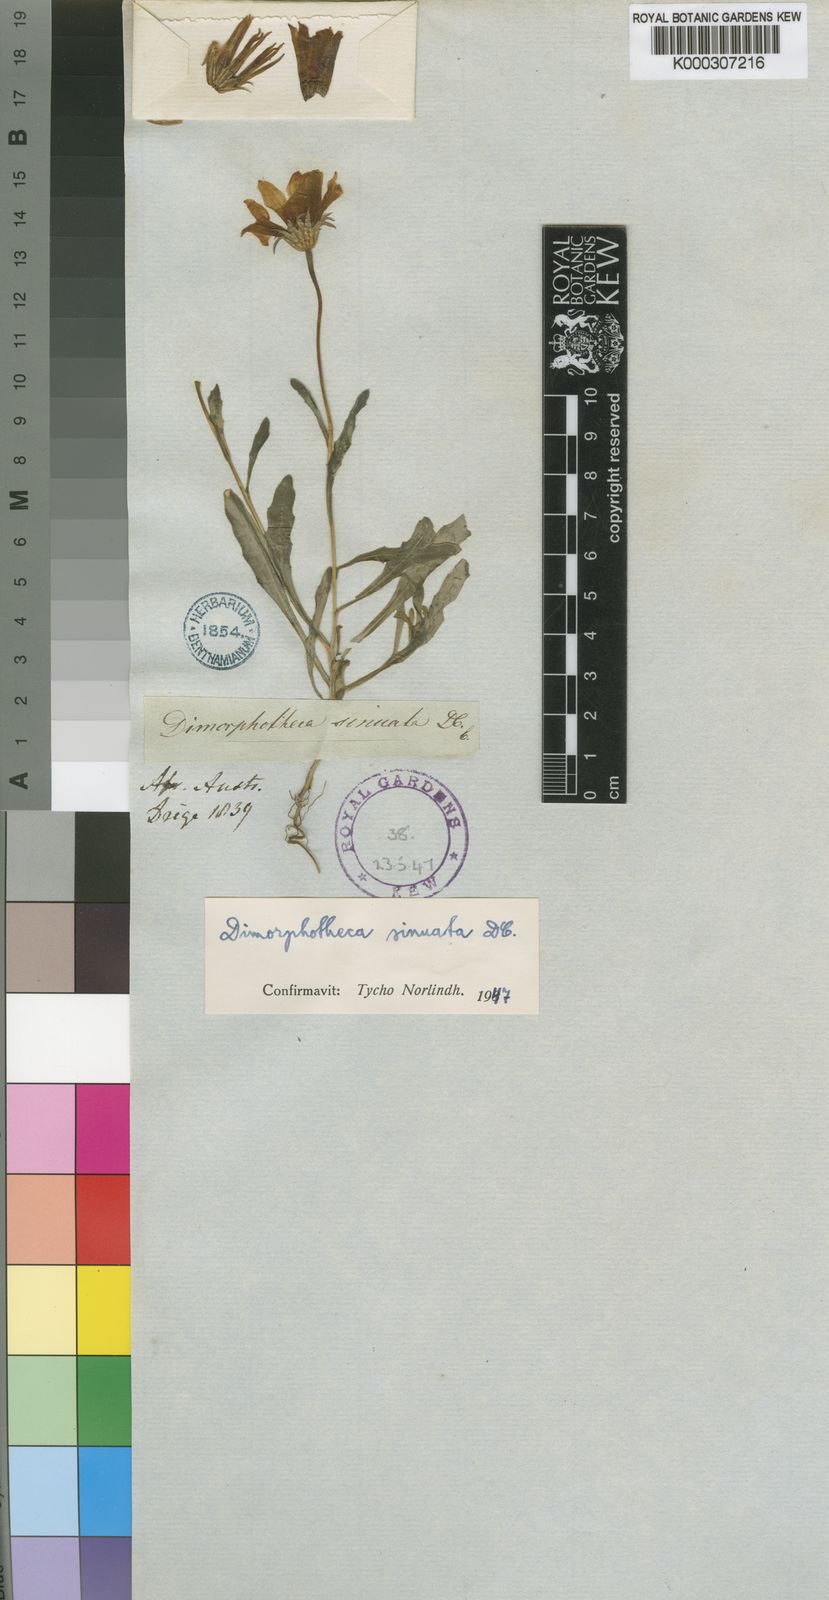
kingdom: Plantae
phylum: Tracheophyta
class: Magnoliopsida
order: Asterales
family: Asteraceae
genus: Dimorphotheca
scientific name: Dimorphotheca sinuata
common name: Glandular cape marigold
